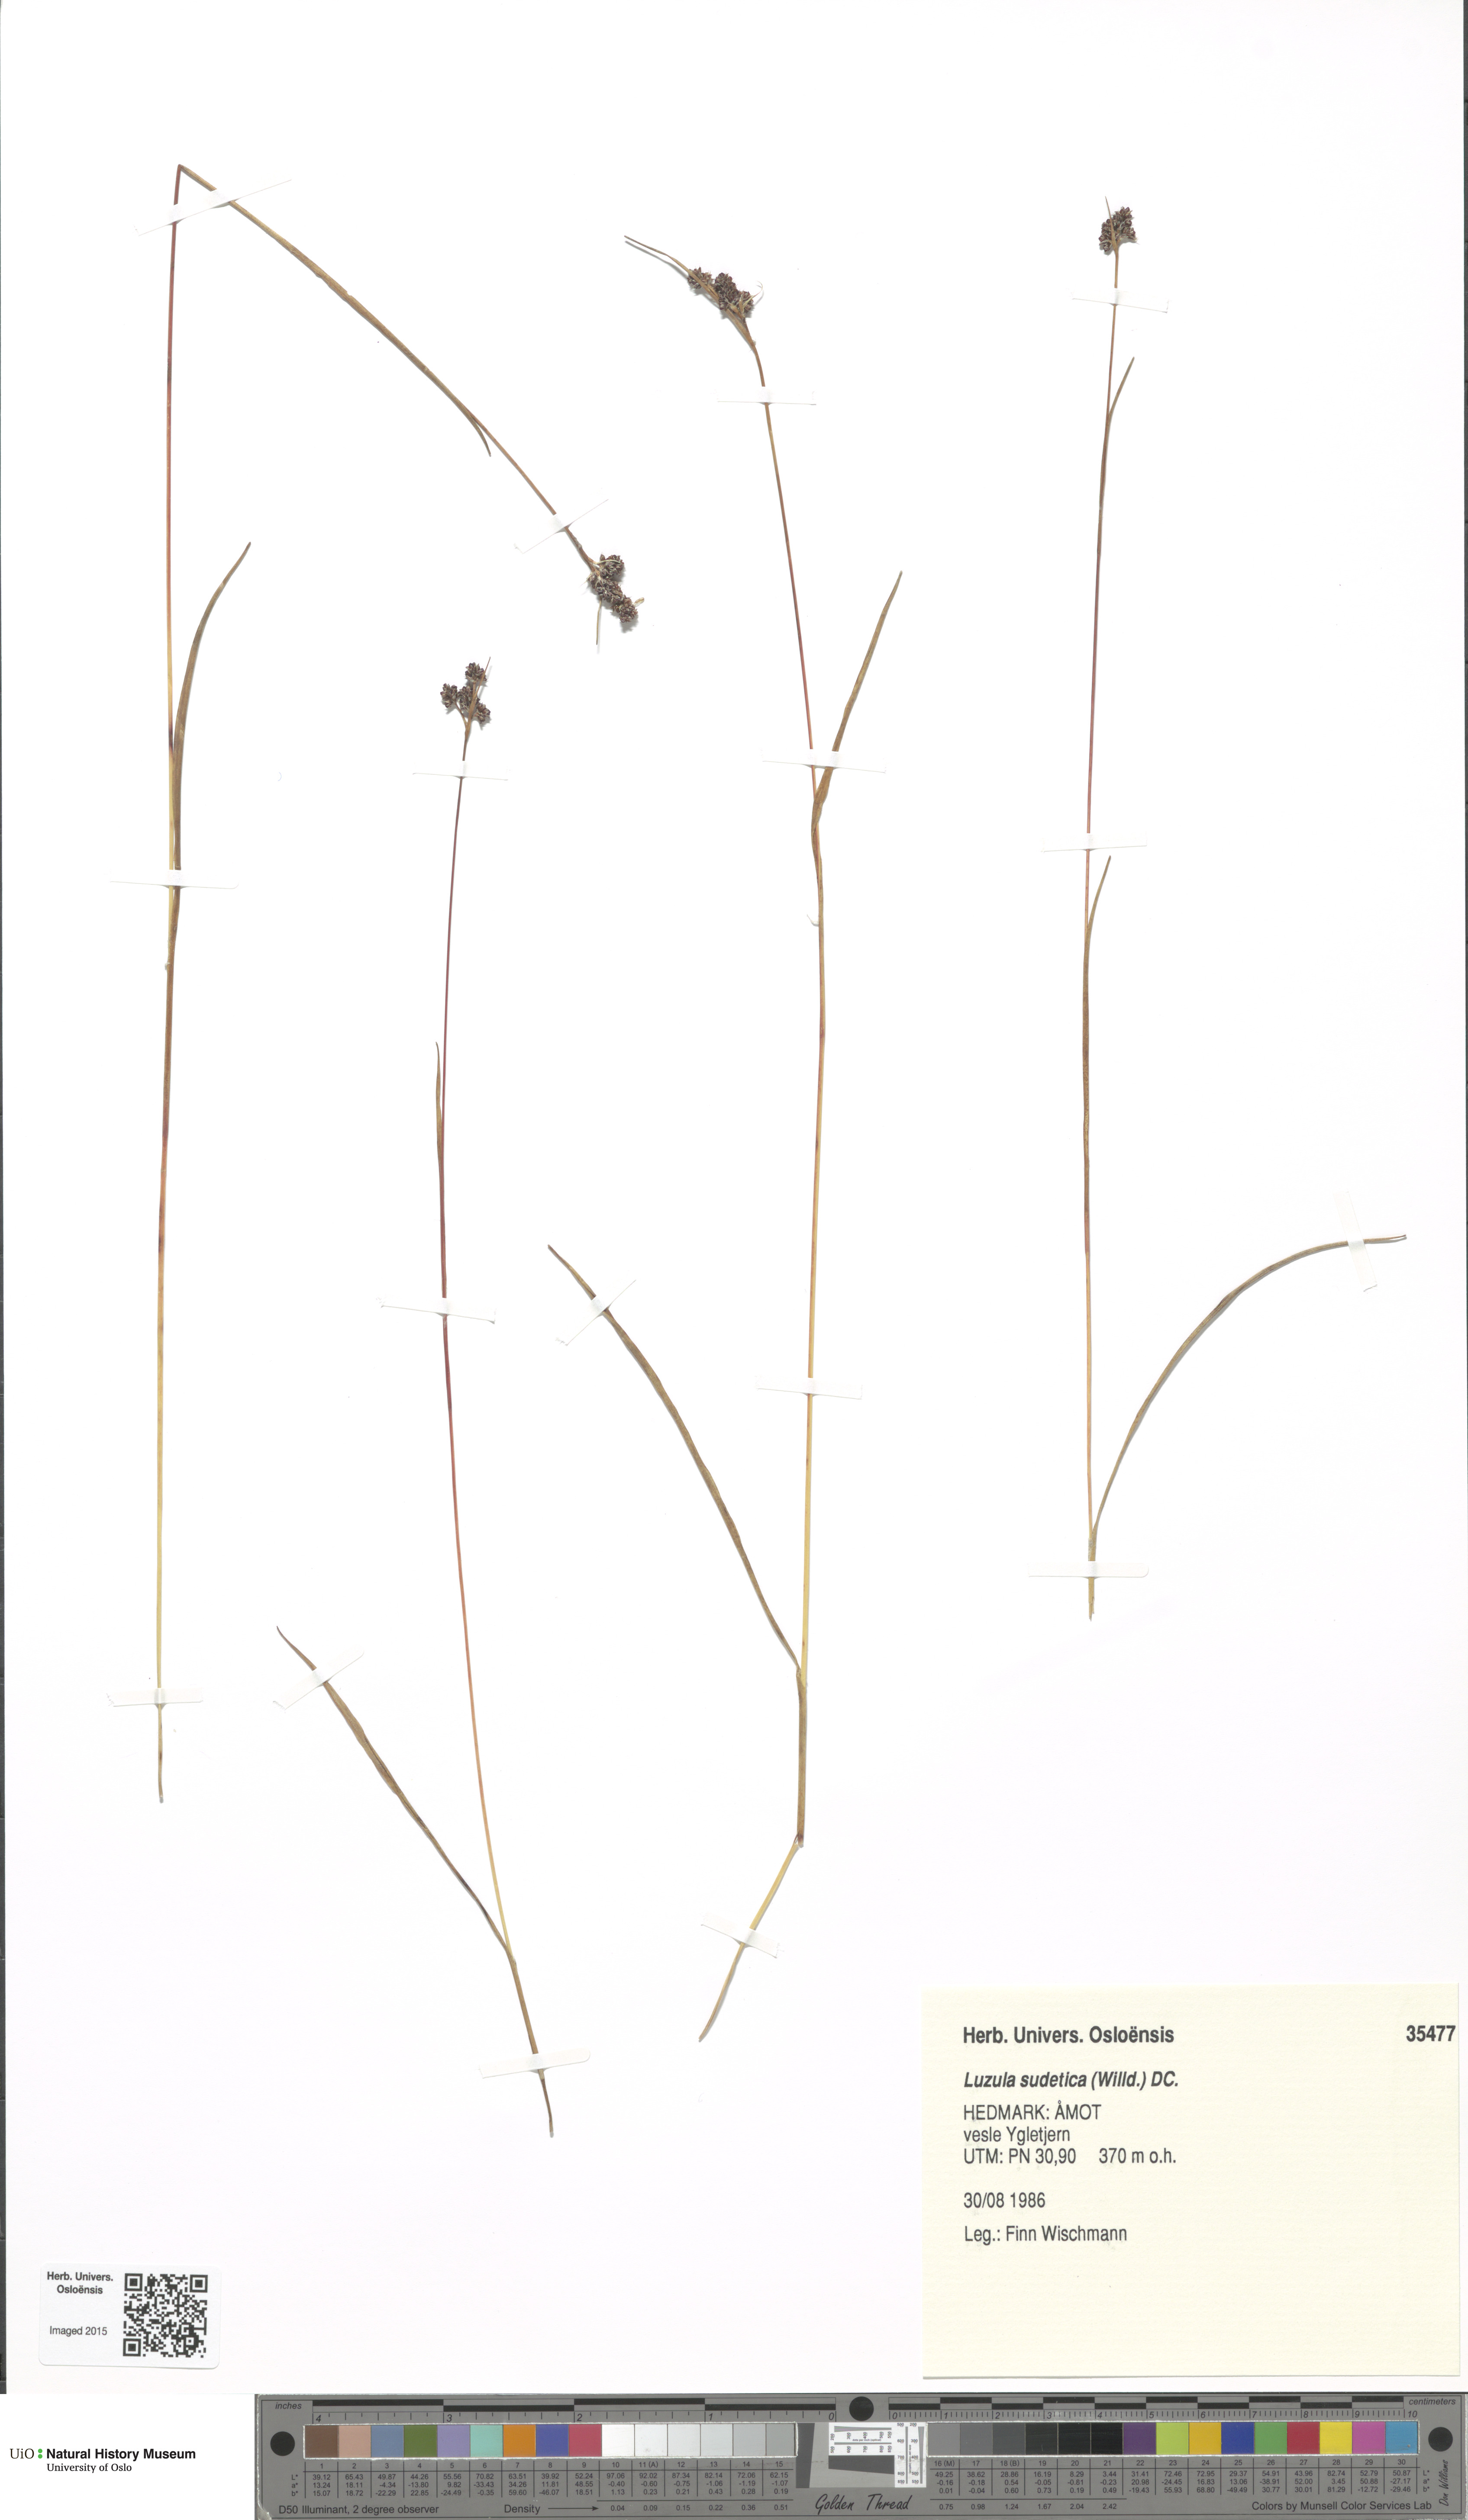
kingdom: Plantae
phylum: Tracheophyta
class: Liliopsida
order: Poales
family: Juncaceae
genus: Luzula
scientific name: Luzula sudetica
